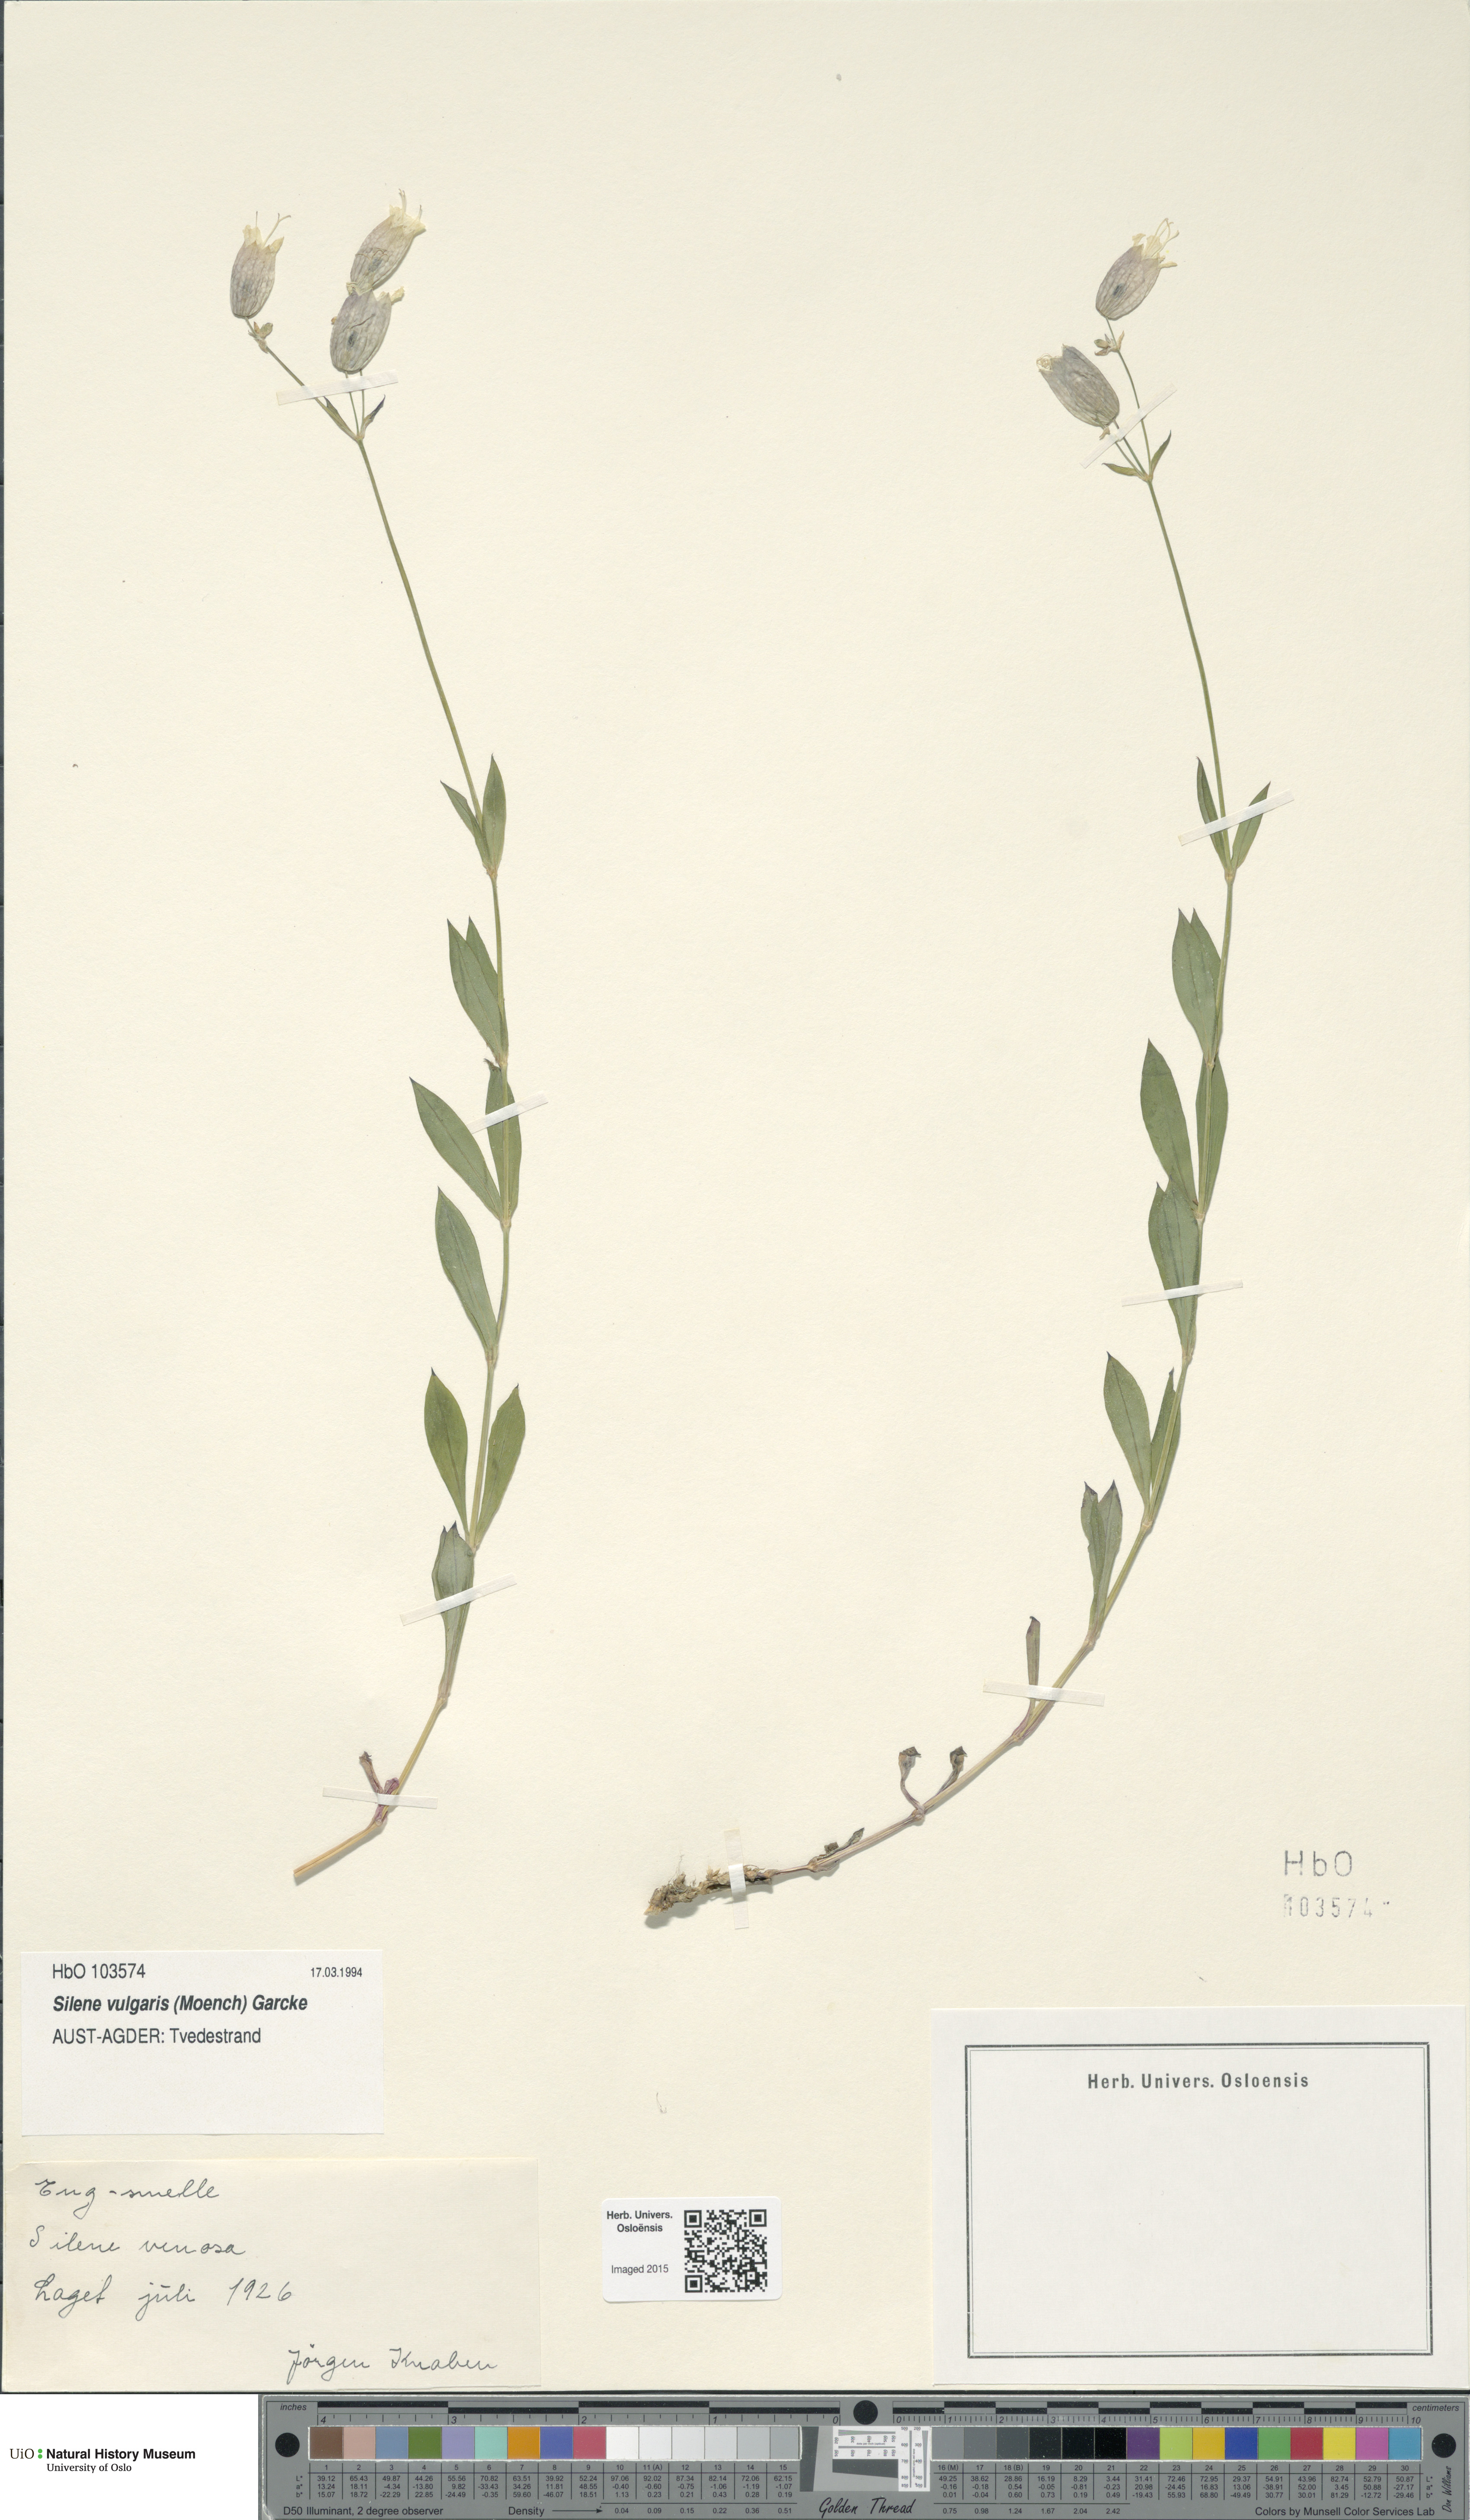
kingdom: Plantae
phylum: Tracheophyta
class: Magnoliopsida
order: Caryophyllales
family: Caryophyllaceae
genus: Silene
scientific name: Silene vulgaris
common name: Bladder campion
